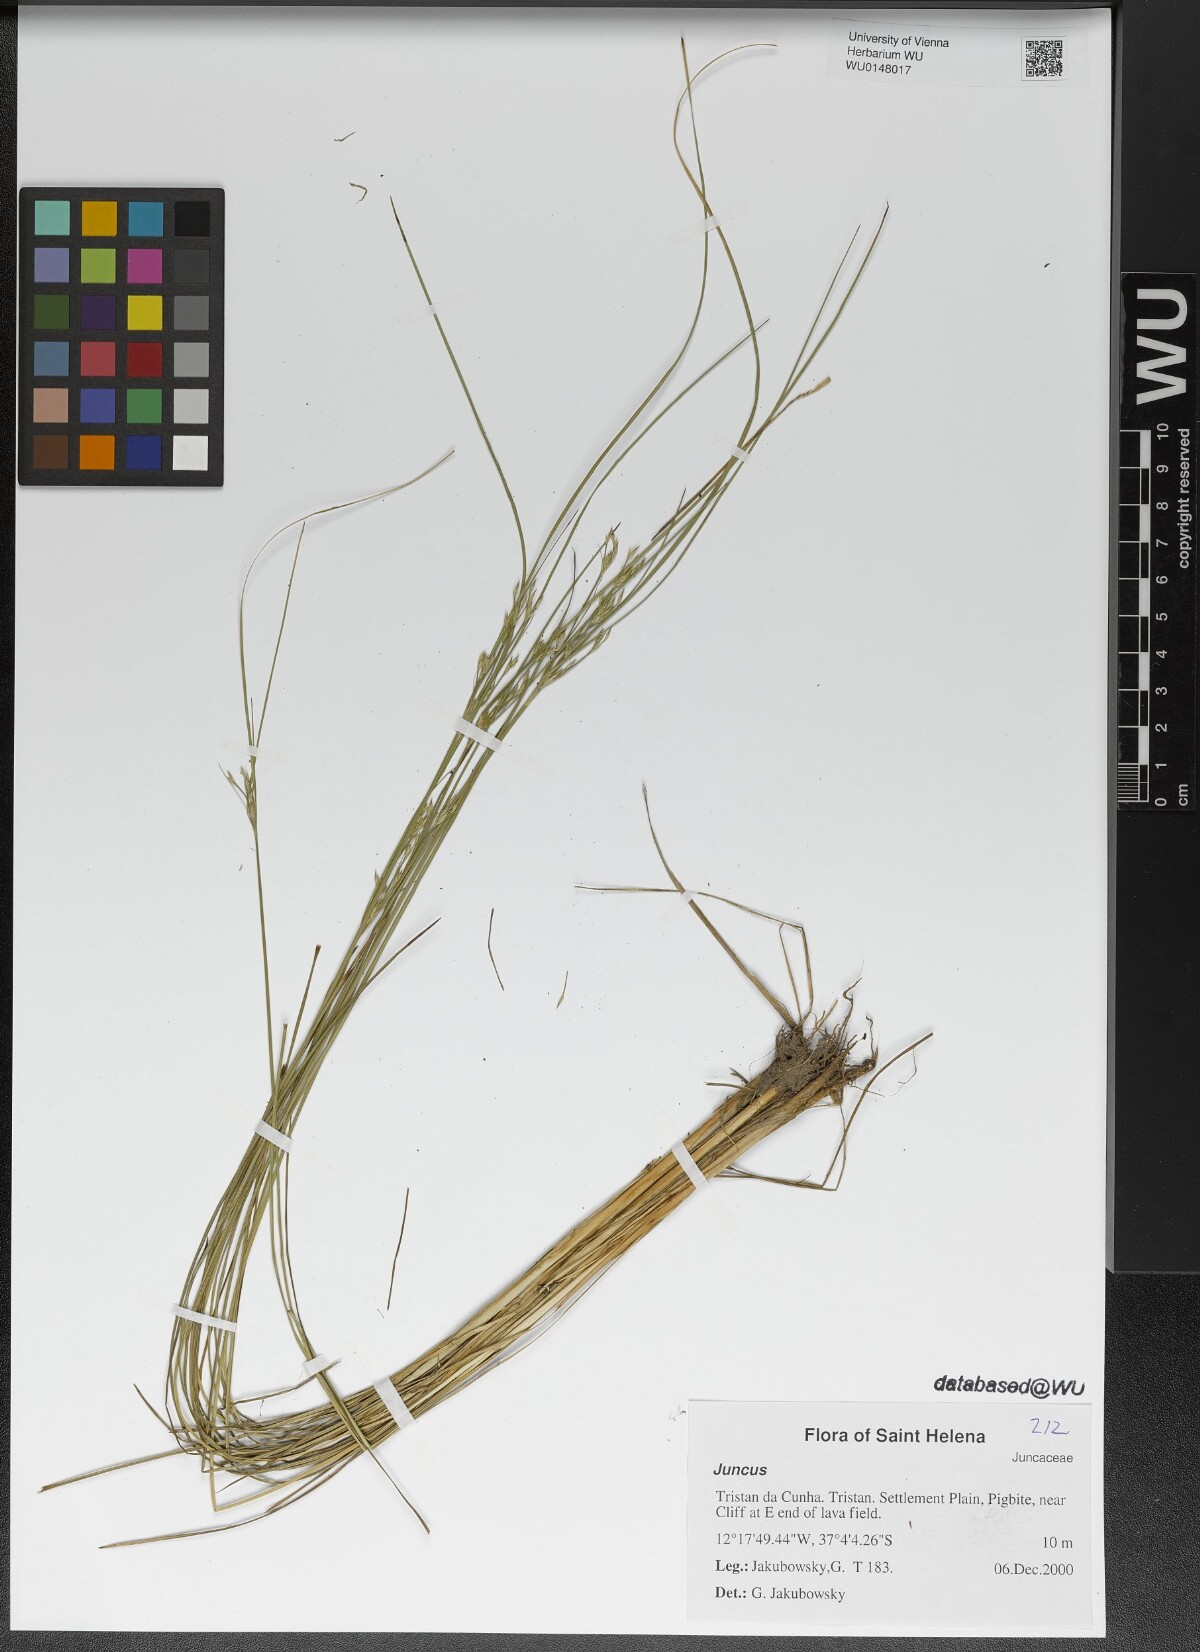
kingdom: Plantae
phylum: Tracheophyta
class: Liliopsida
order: Poales
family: Juncaceae
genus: Juncus
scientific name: Juncus
